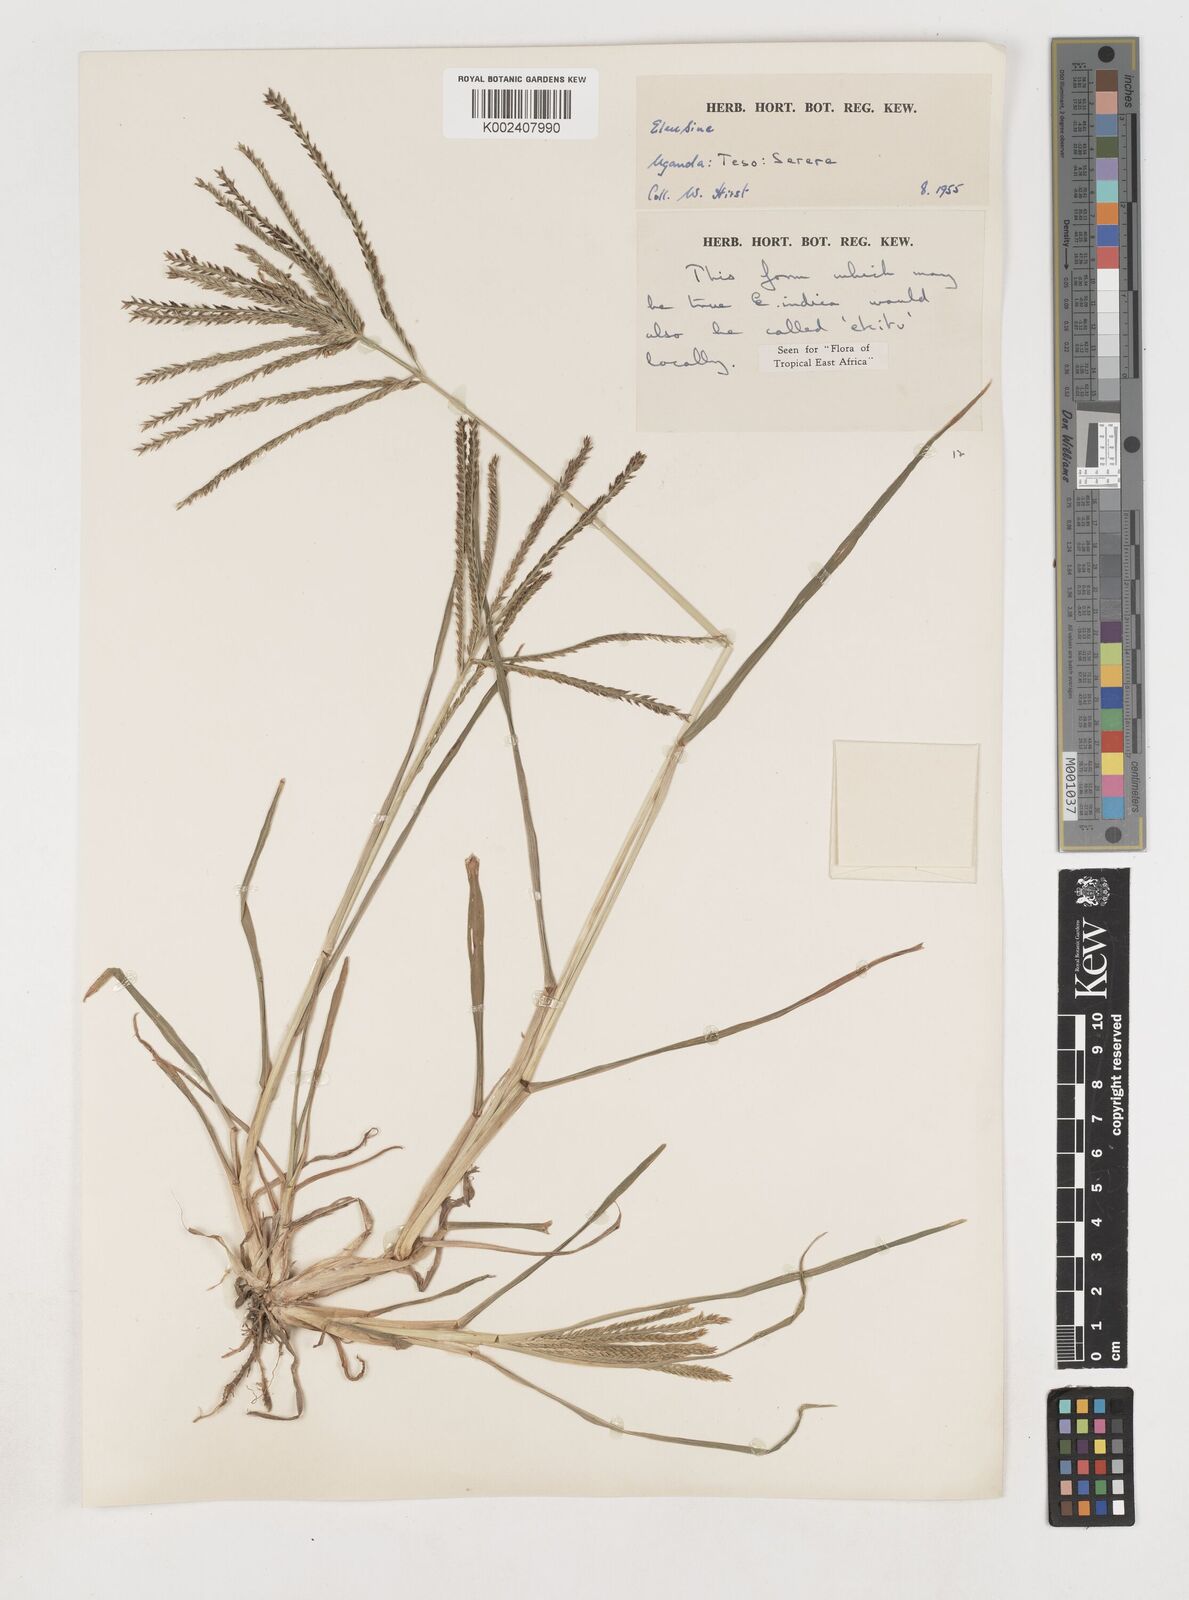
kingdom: Plantae
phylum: Tracheophyta
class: Liliopsida
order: Poales
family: Poaceae
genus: Eleusine
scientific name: Eleusine indica
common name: Yard-grass
